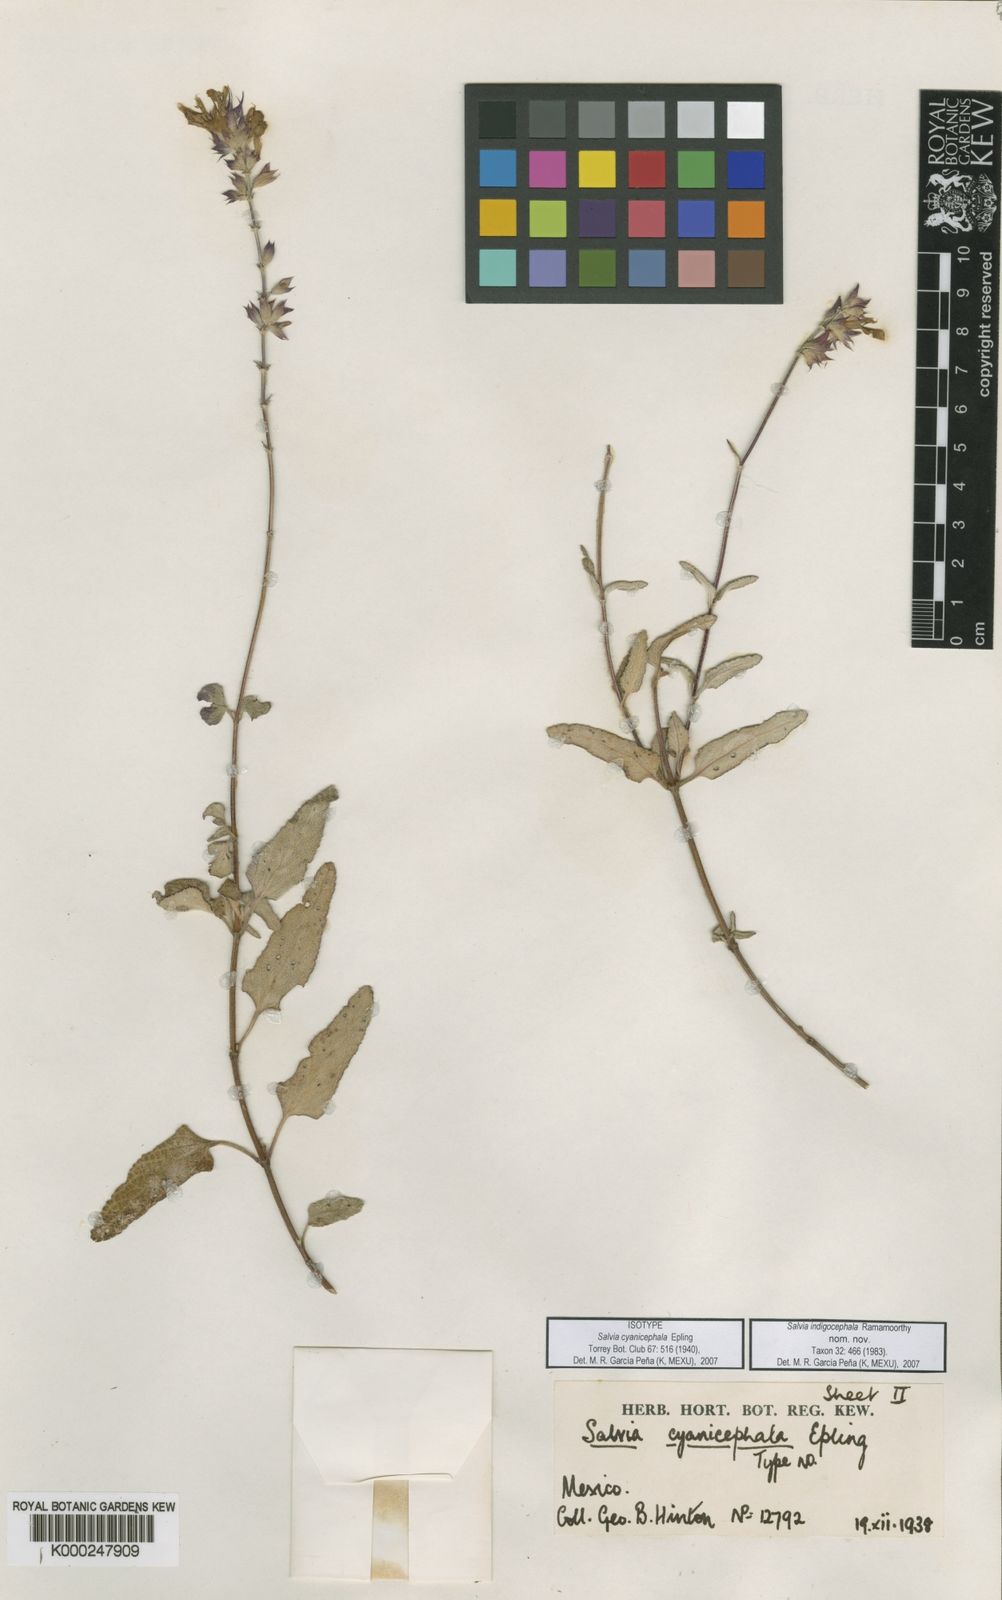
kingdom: Plantae
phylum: Tracheophyta
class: Magnoliopsida
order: Lamiales
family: Lamiaceae
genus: Salvia
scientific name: Salvia
